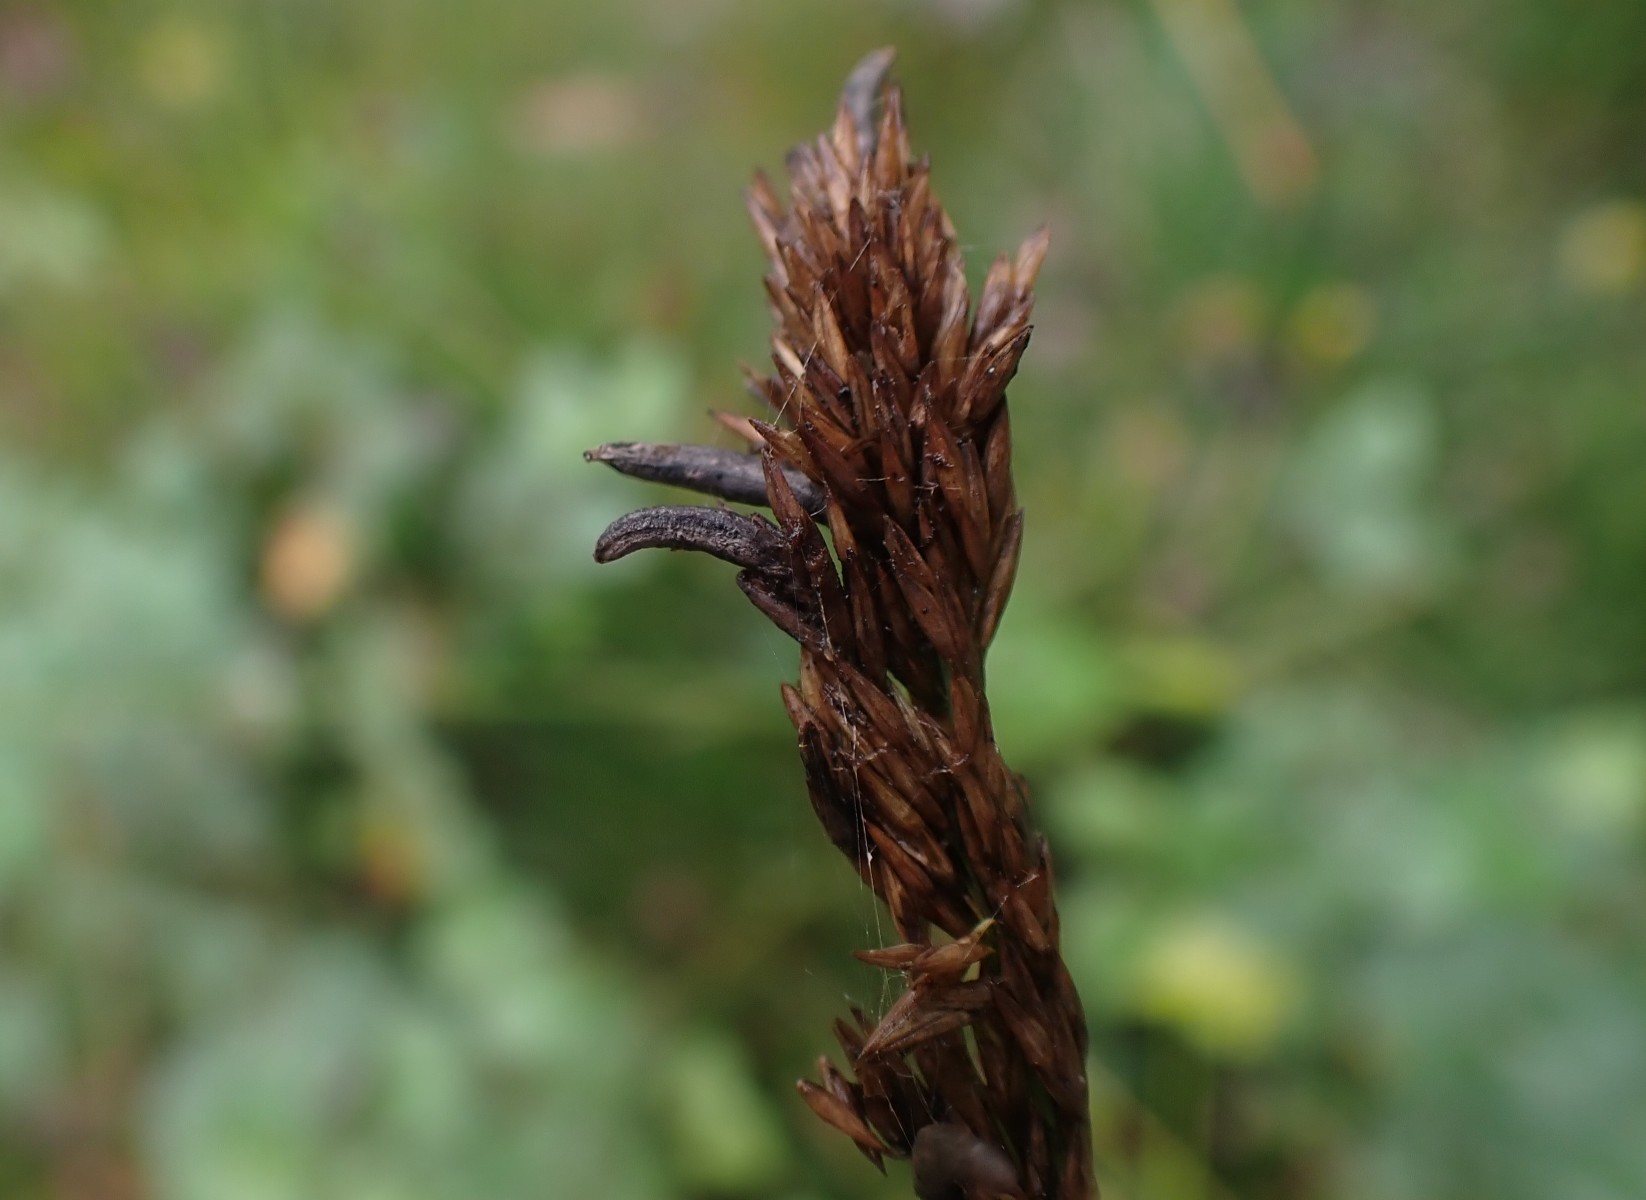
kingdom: Fungi
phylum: Ascomycota
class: Sordariomycetes
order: Hypocreales
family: Clavicipitaceae
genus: Claviceps
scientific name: Claviceps purpurea
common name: almindelig meldrøjer
